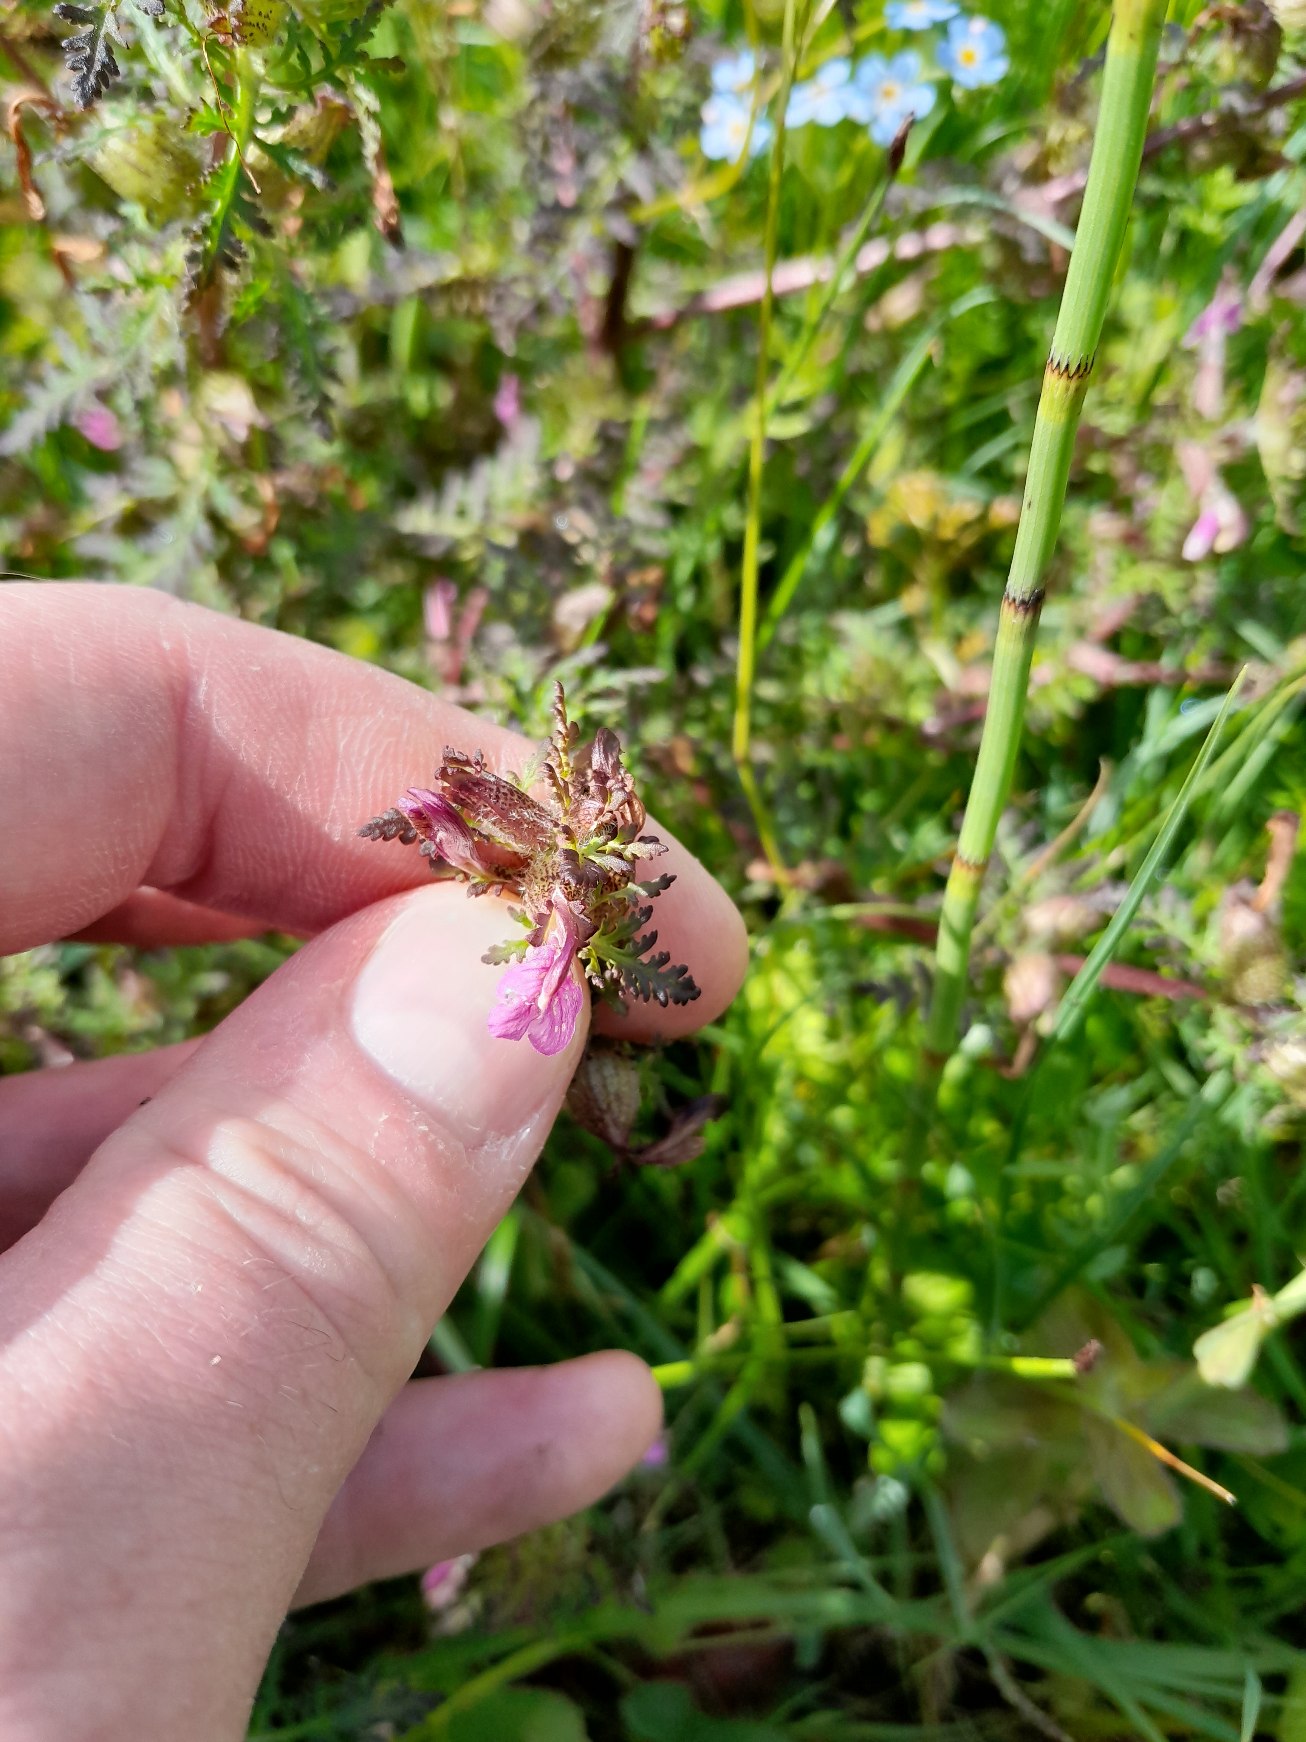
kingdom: Plantae
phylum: Tracheophyta
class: Magnoliopsida
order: Lamiales
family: Orobanchaceae
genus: Pedicularis
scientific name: Pedicularis palustris
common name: Eng-troldurt
